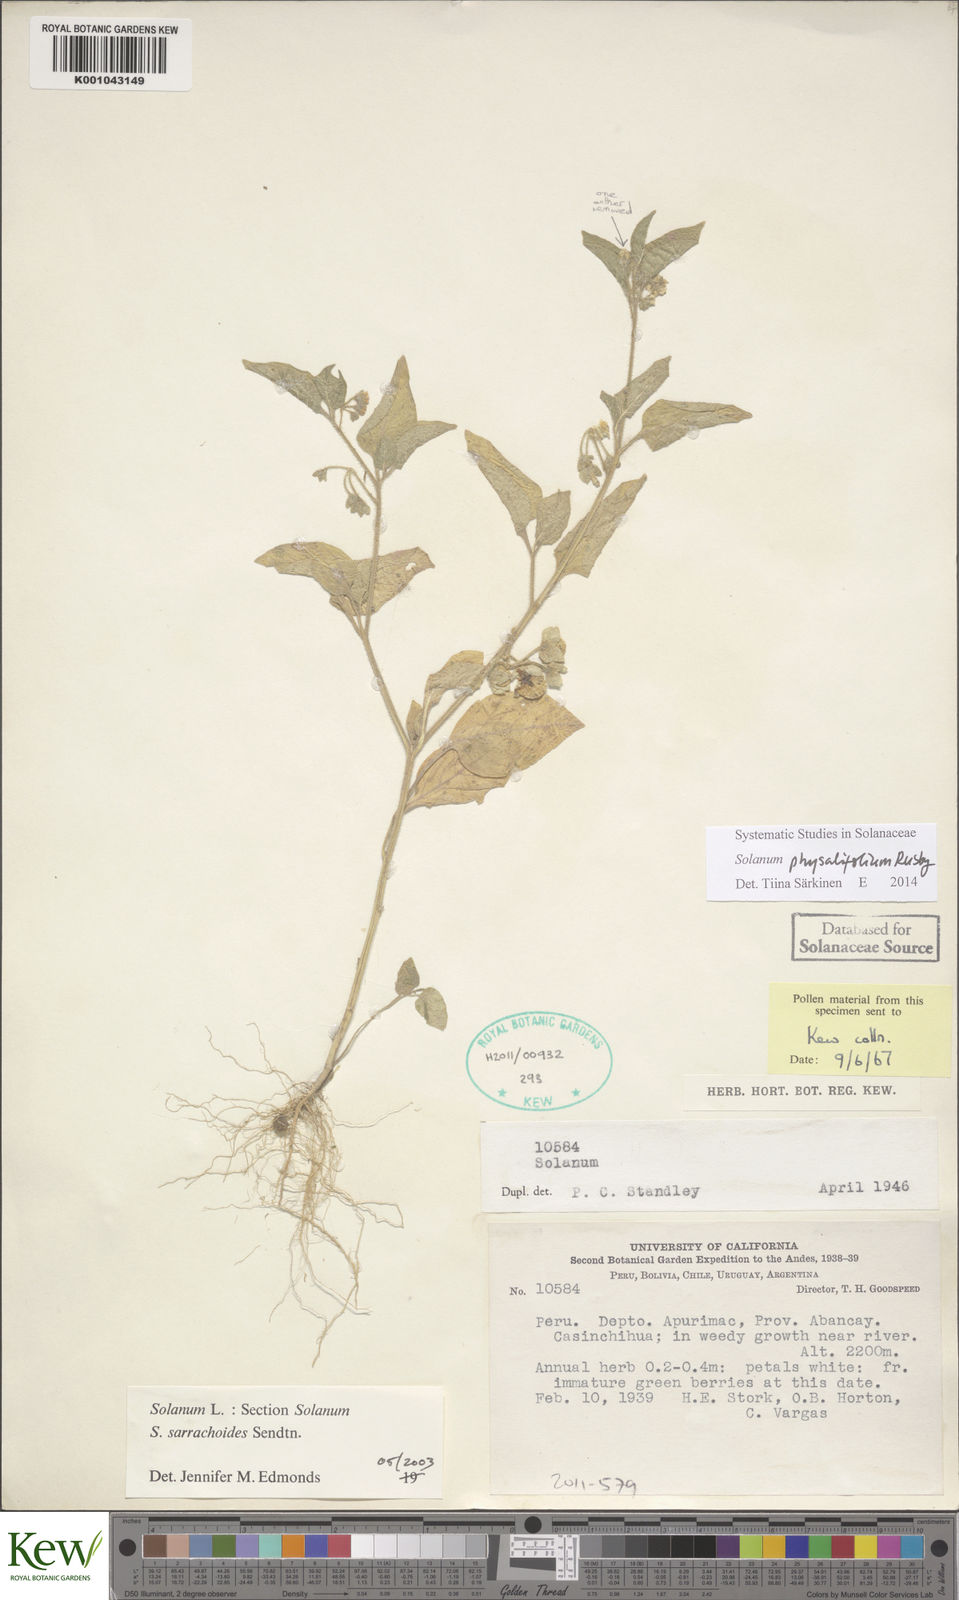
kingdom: Plantae
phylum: Tracheophyta
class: Magnoliopsida
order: Solanales
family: Solanaceae
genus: Solanum
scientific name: Solanum physalifolium
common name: Green nightshade
